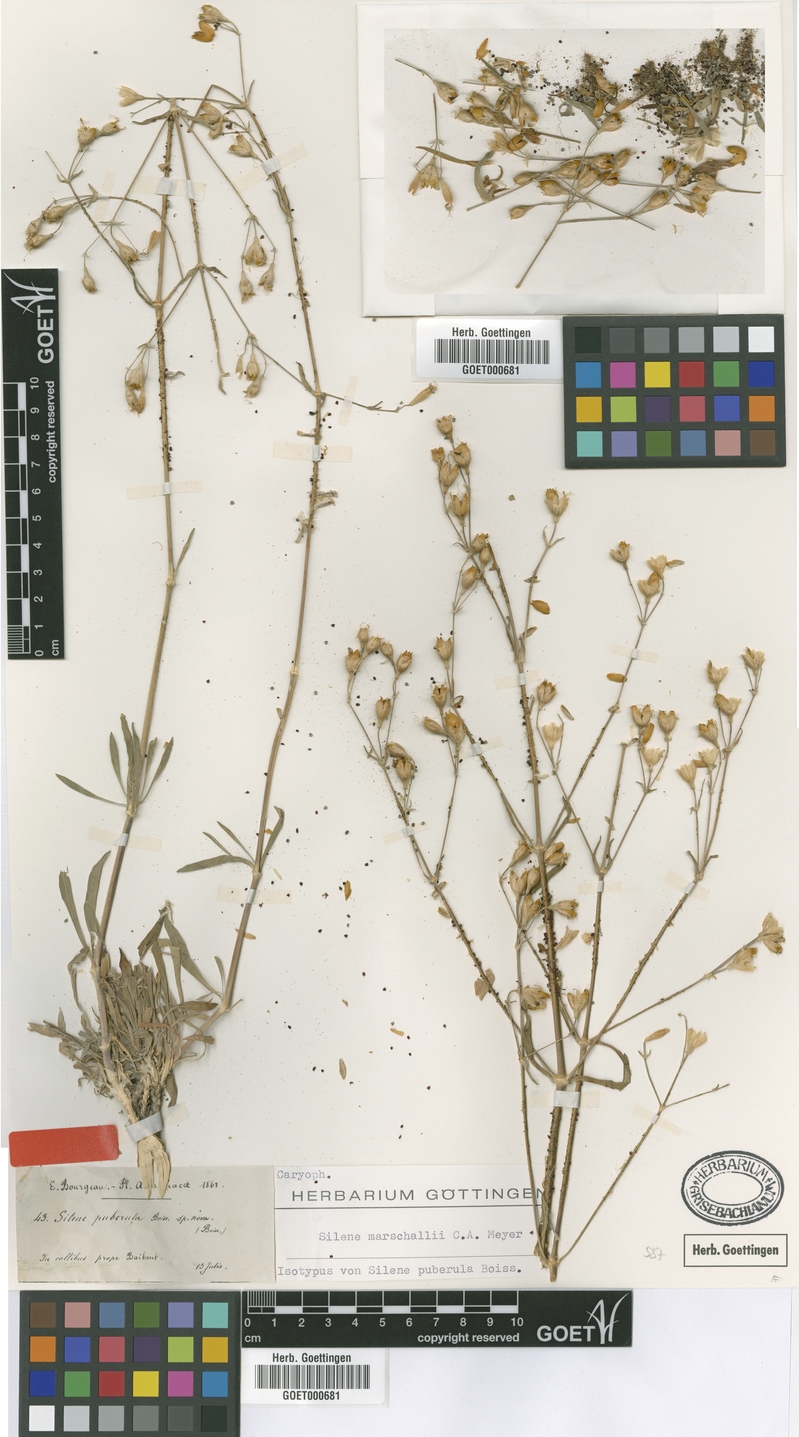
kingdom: Plantae
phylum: Tracheophyta
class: Magnoliopsida
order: Caryophyllales
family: Caryophyllaceae
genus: Silene
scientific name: Silene marschallii
